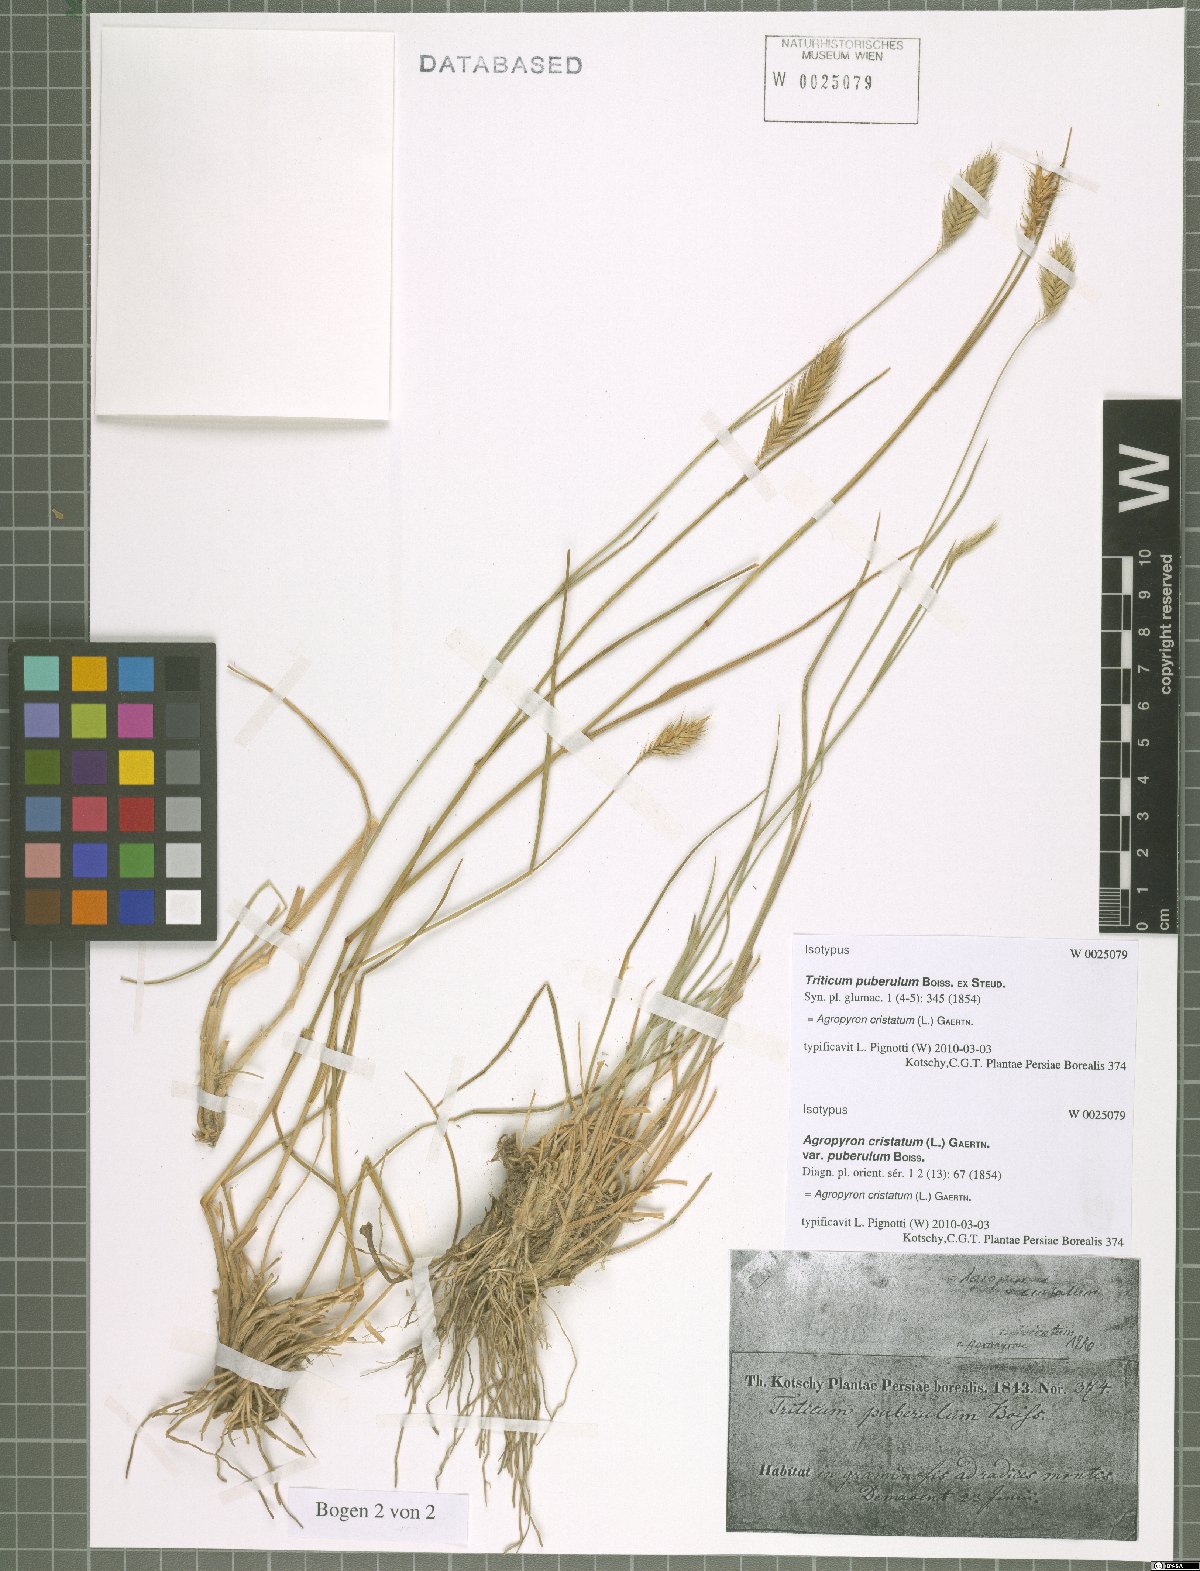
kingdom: Plantae
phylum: Tracheophyta
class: Liliopsida
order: Poales
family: Poaceae
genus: Agropyron
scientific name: Agropyron cristatum
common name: Crested wheatgrass
